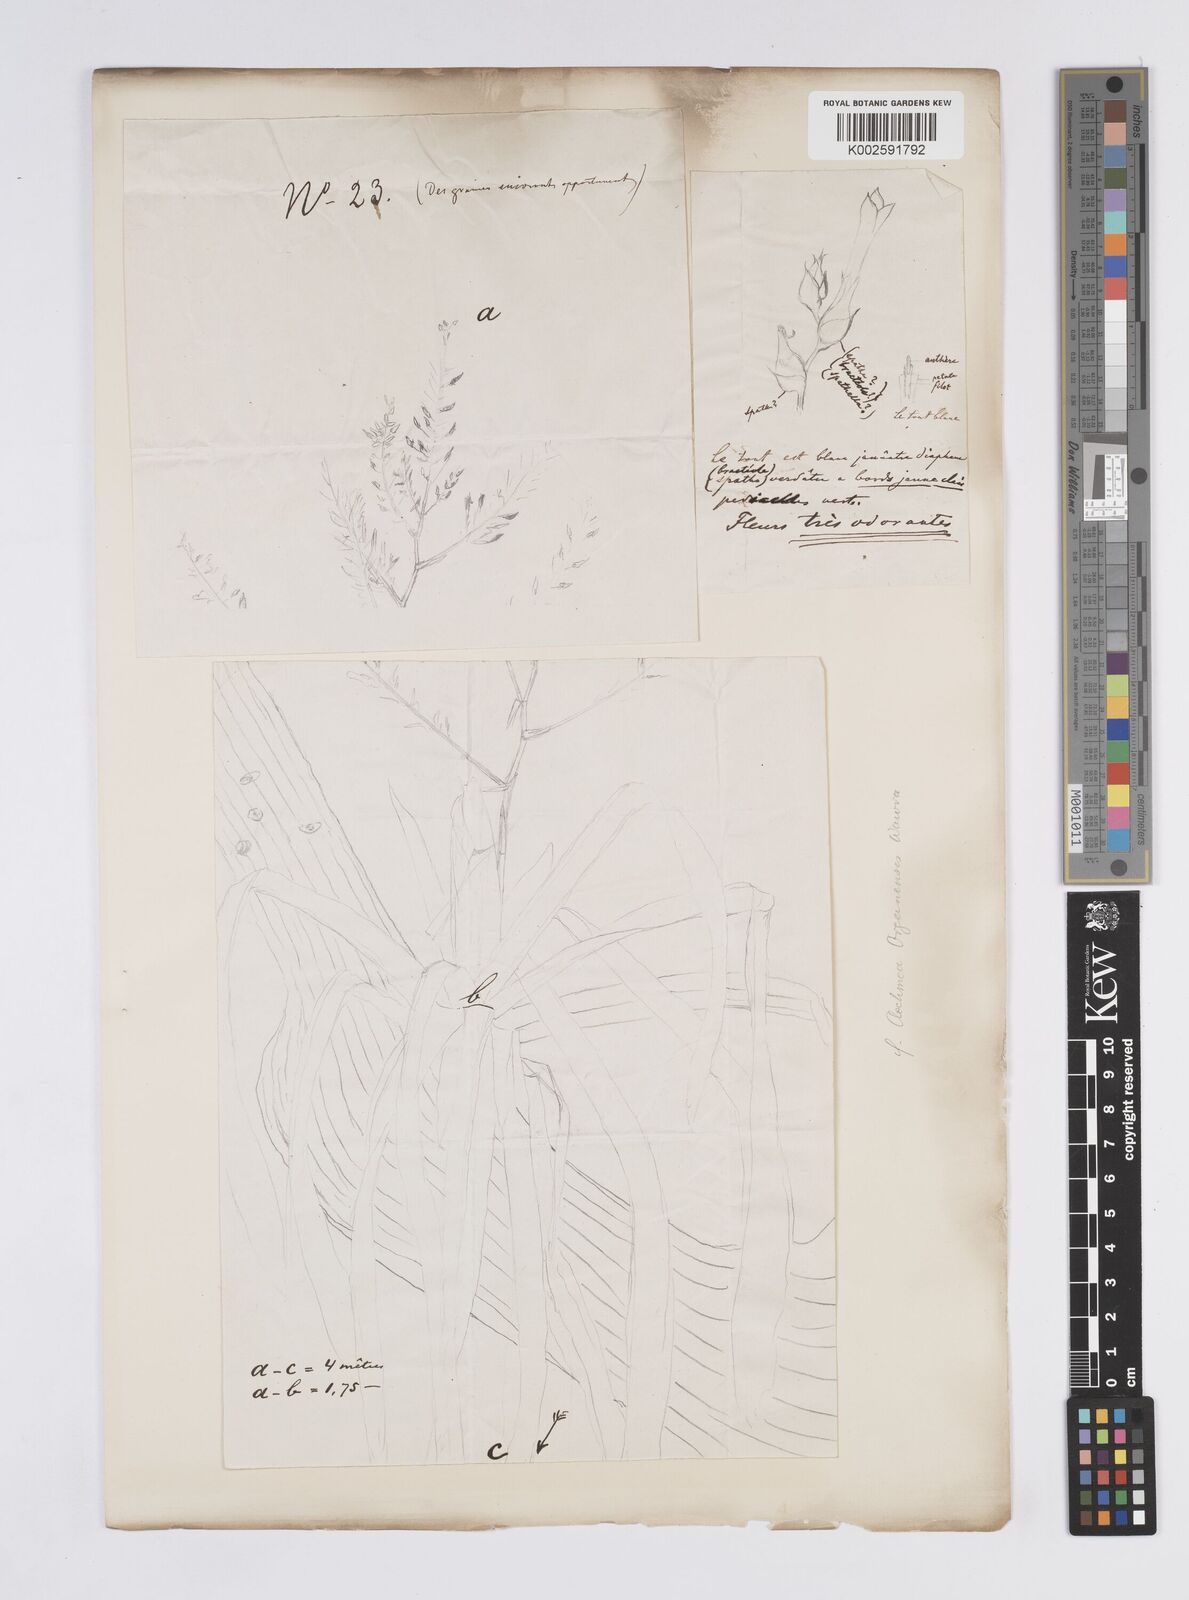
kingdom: Plantae
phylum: Tracheophyta
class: Liliopsida
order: Poales
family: Bromeliaceae
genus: Aechmea
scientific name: Aechmea organensis
